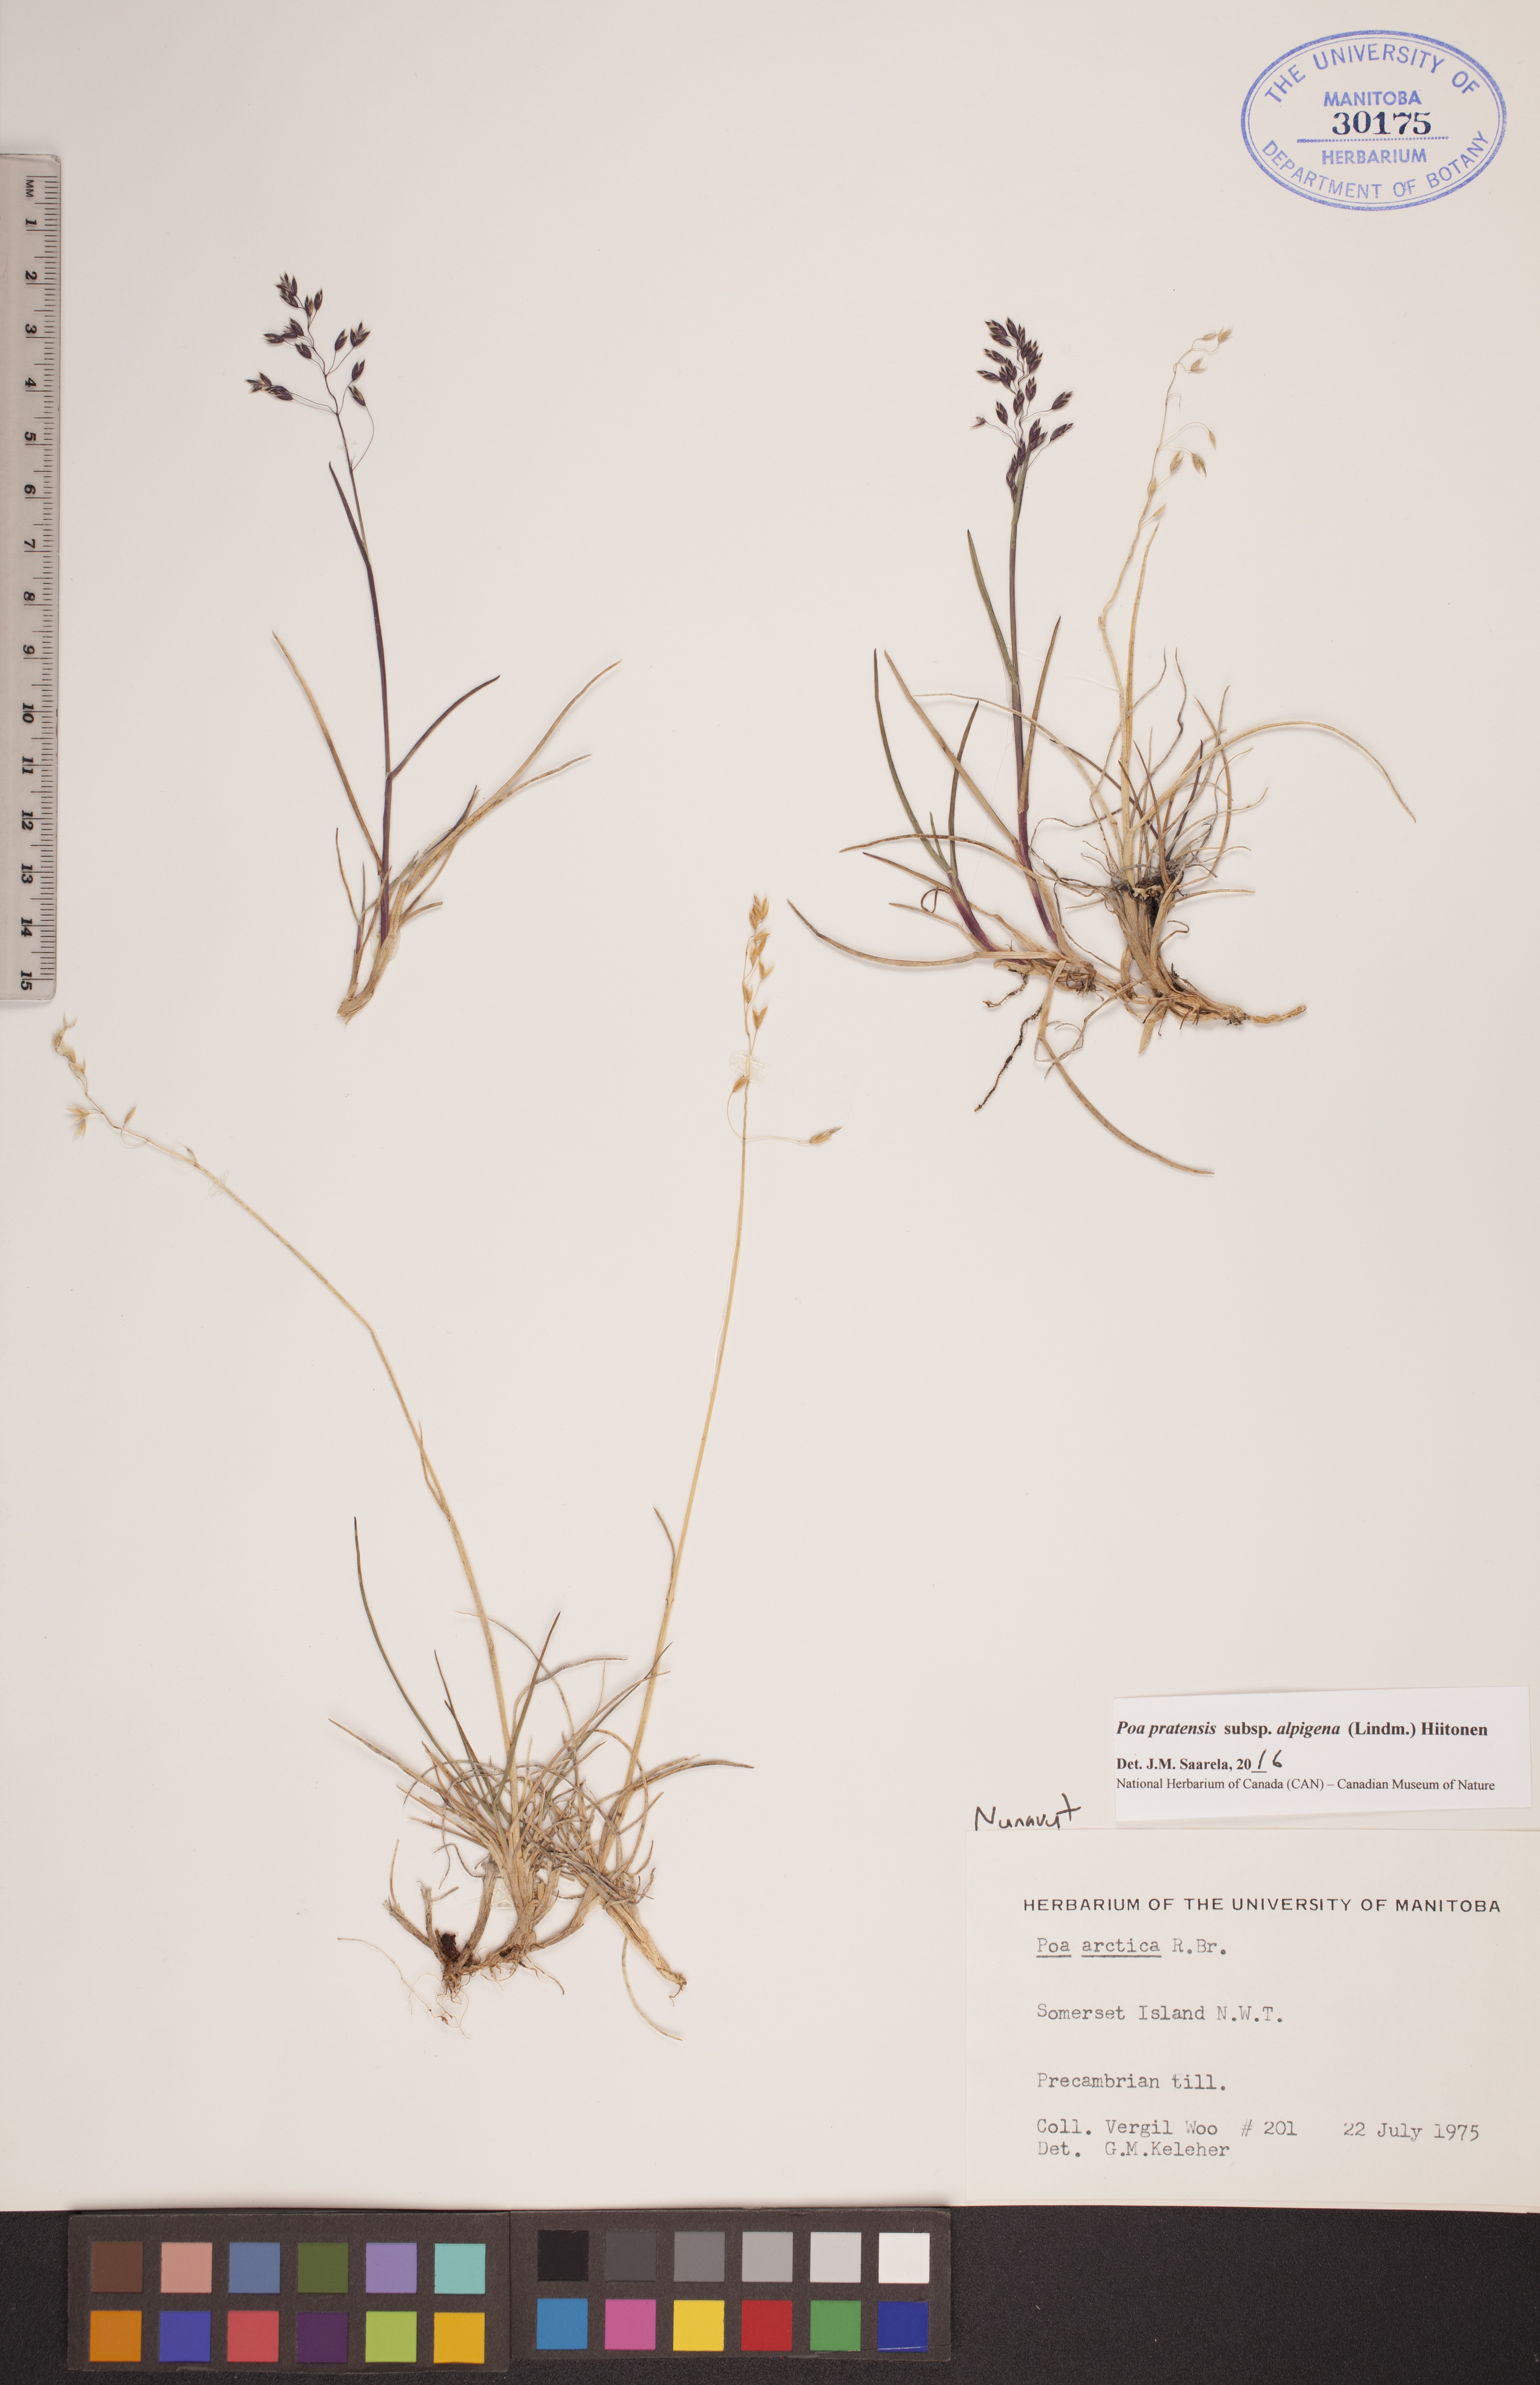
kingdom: Plantae
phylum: Tracheophyta
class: Liliopsida
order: Poales
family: Poaceae
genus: Poa
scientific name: Poa alpigena
